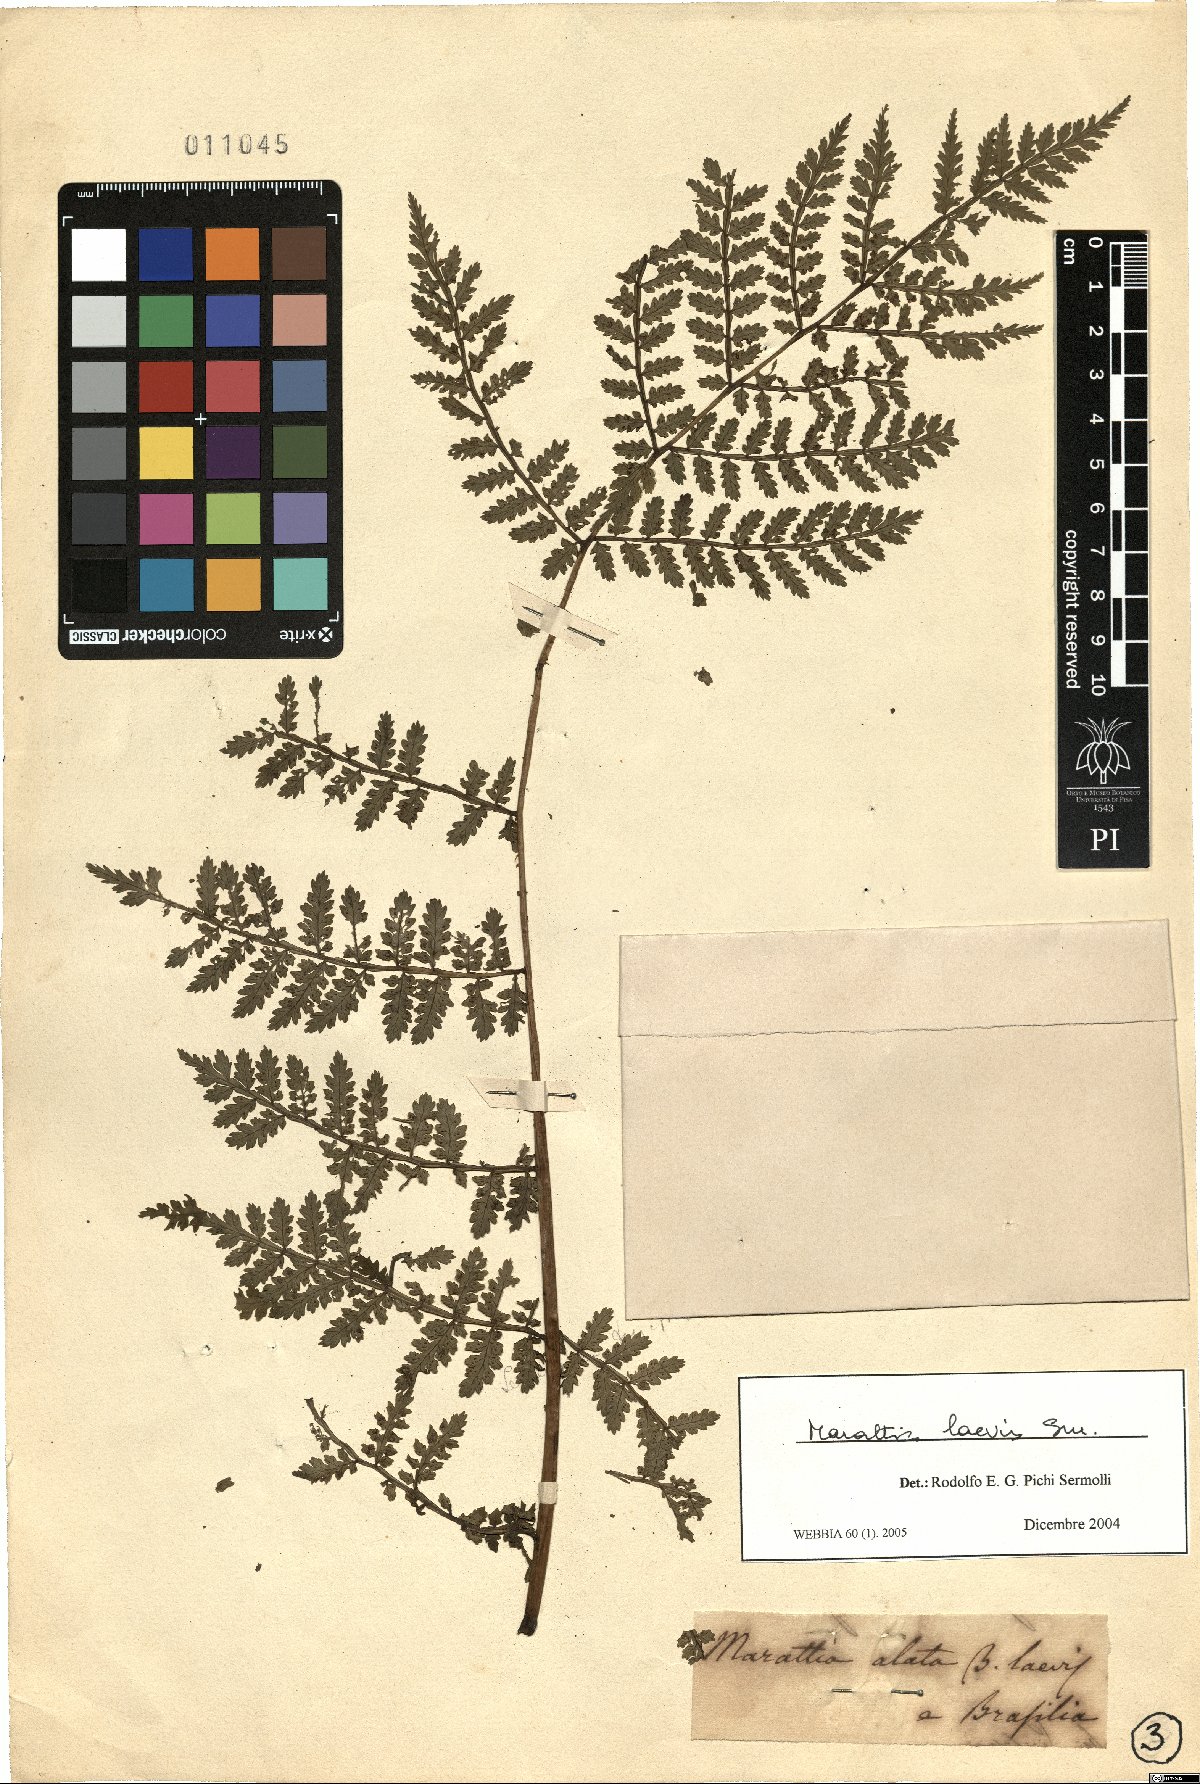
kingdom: Plantae
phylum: Tracheophyta
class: Polypodiopsida
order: Marattiales
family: Marattiaceae
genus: Eupodium
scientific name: Eupodium laeve
